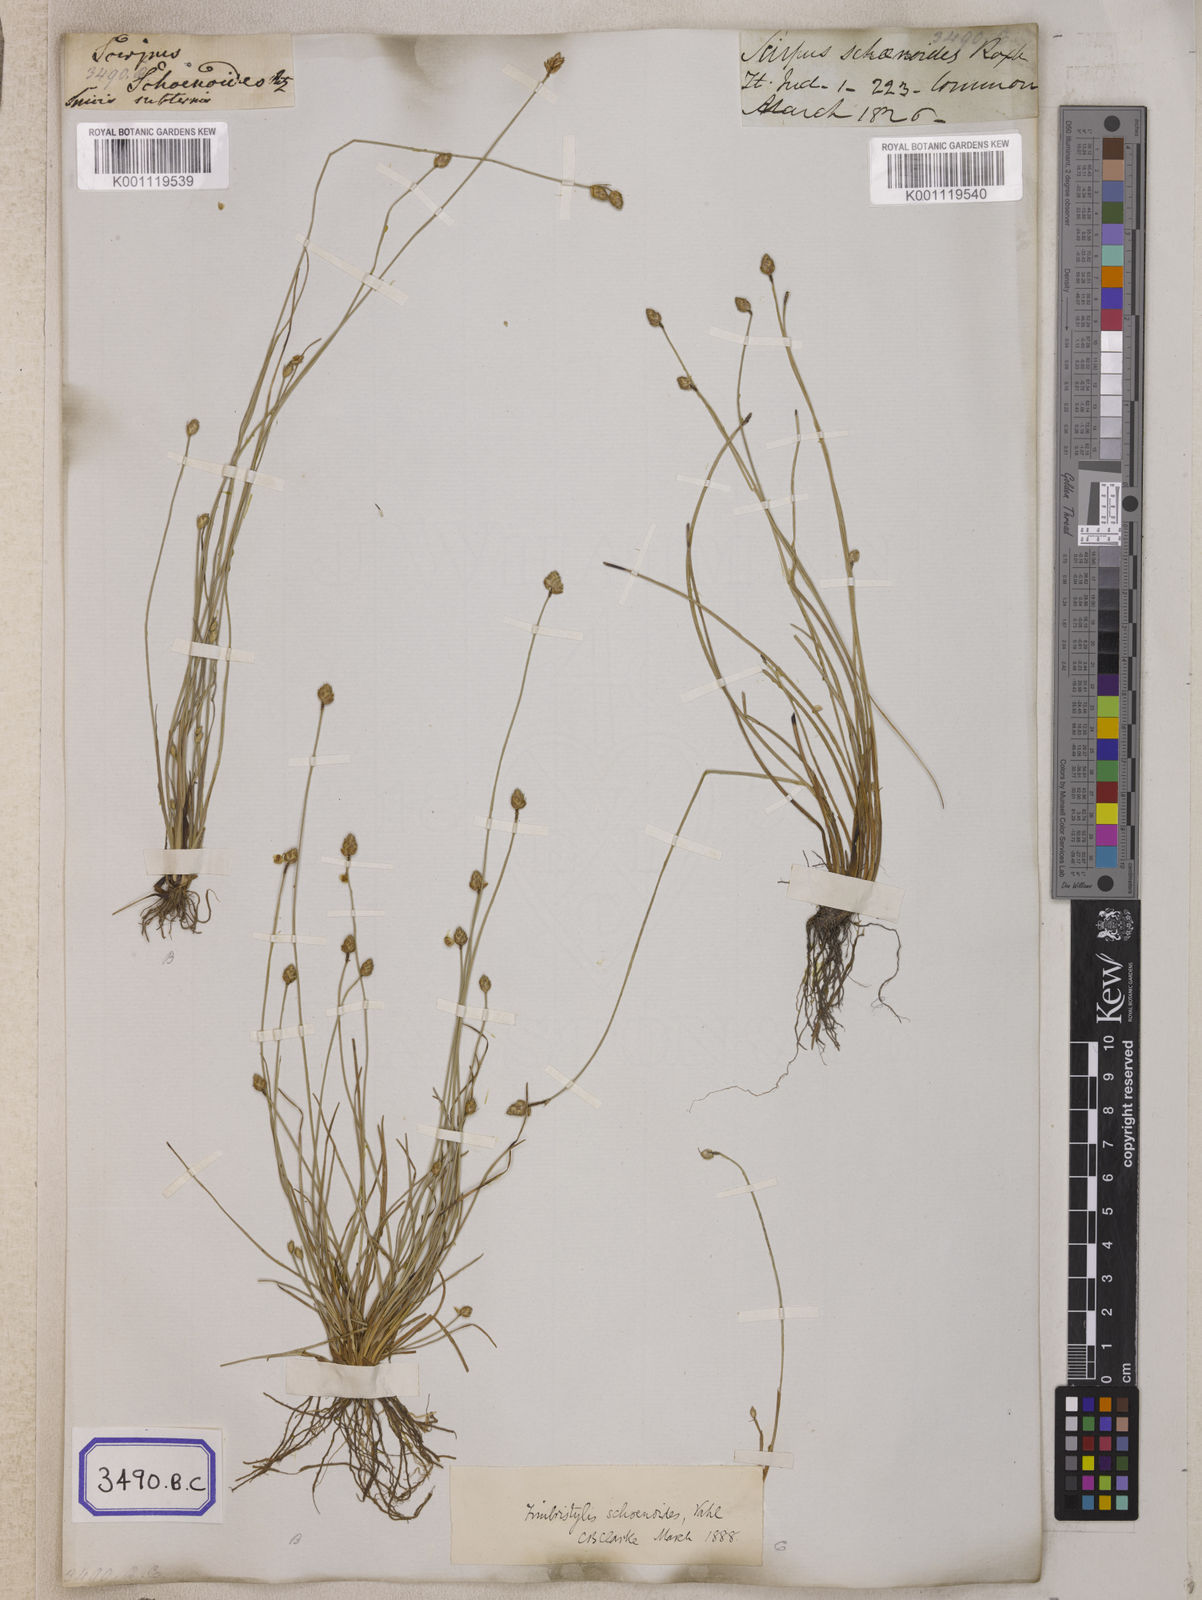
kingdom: Plantae
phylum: Tracheophyta
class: Liliopsida
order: Poales
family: Cyperaceae
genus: Isolepis
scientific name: Isolepis
